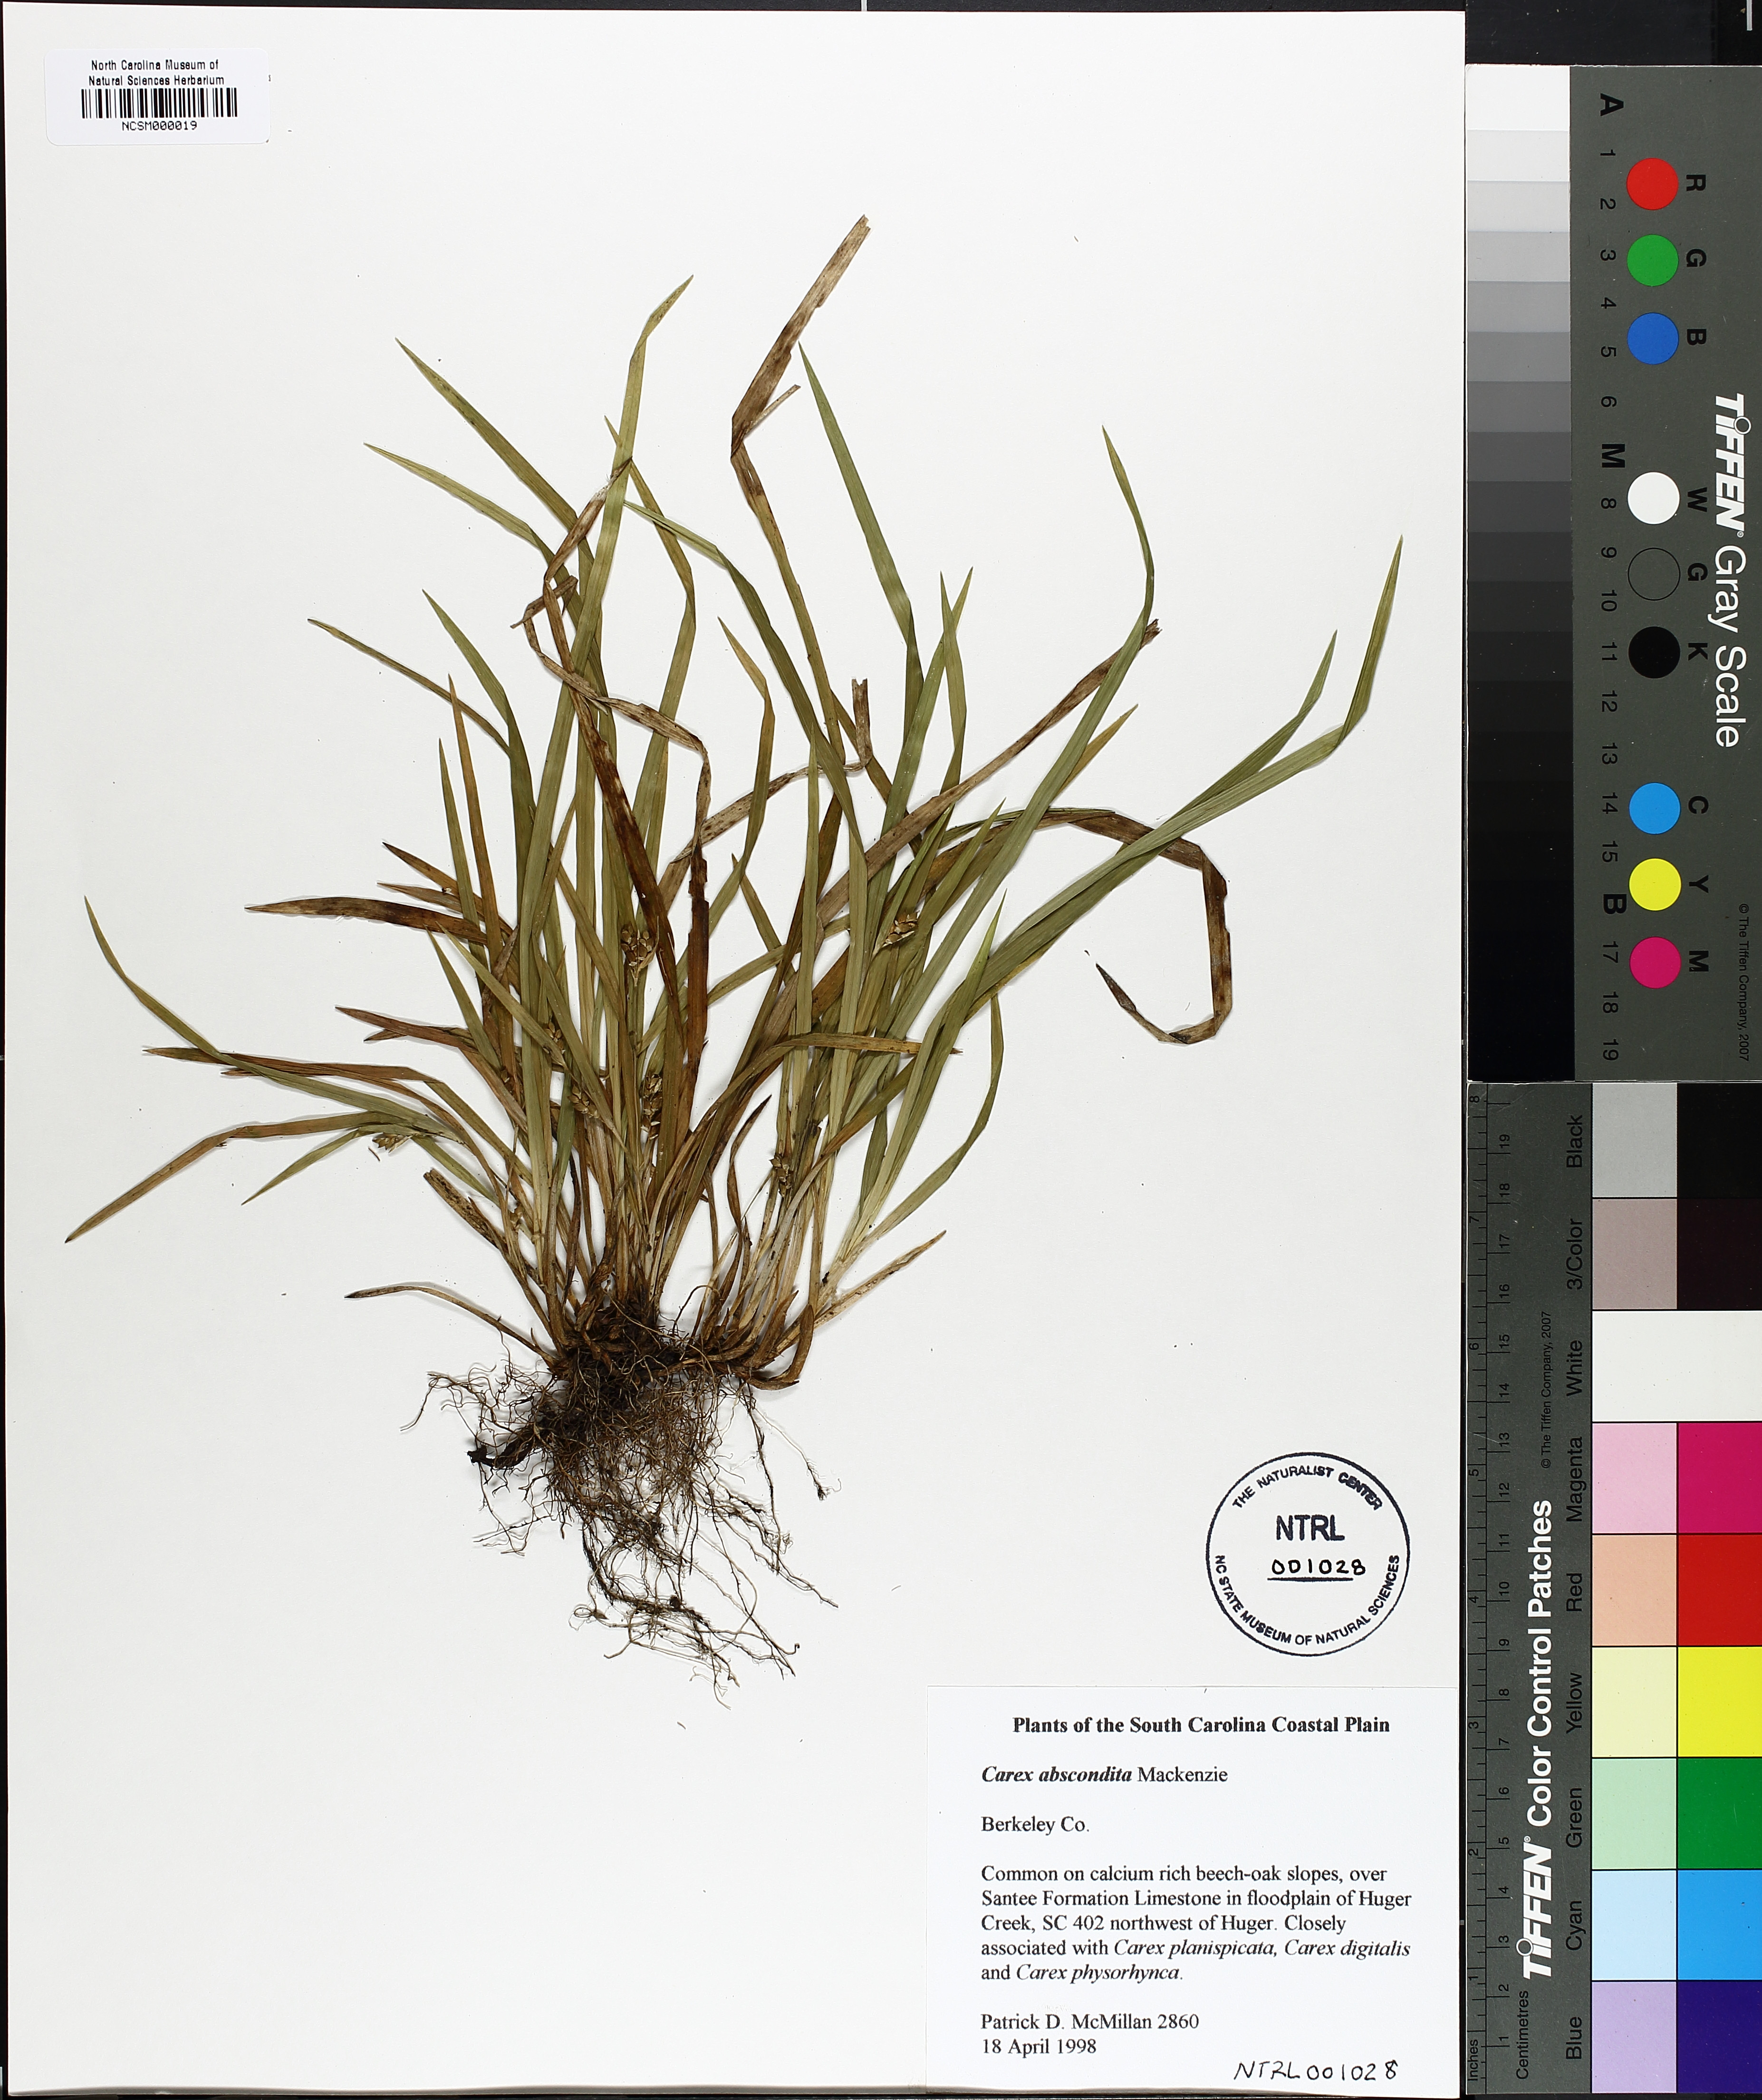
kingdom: Plantae
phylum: Tracheophyta
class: Liliopsida
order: Poales
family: Cyperaceae
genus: Carex
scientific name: Carex abscondita
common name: Thicket sedge
